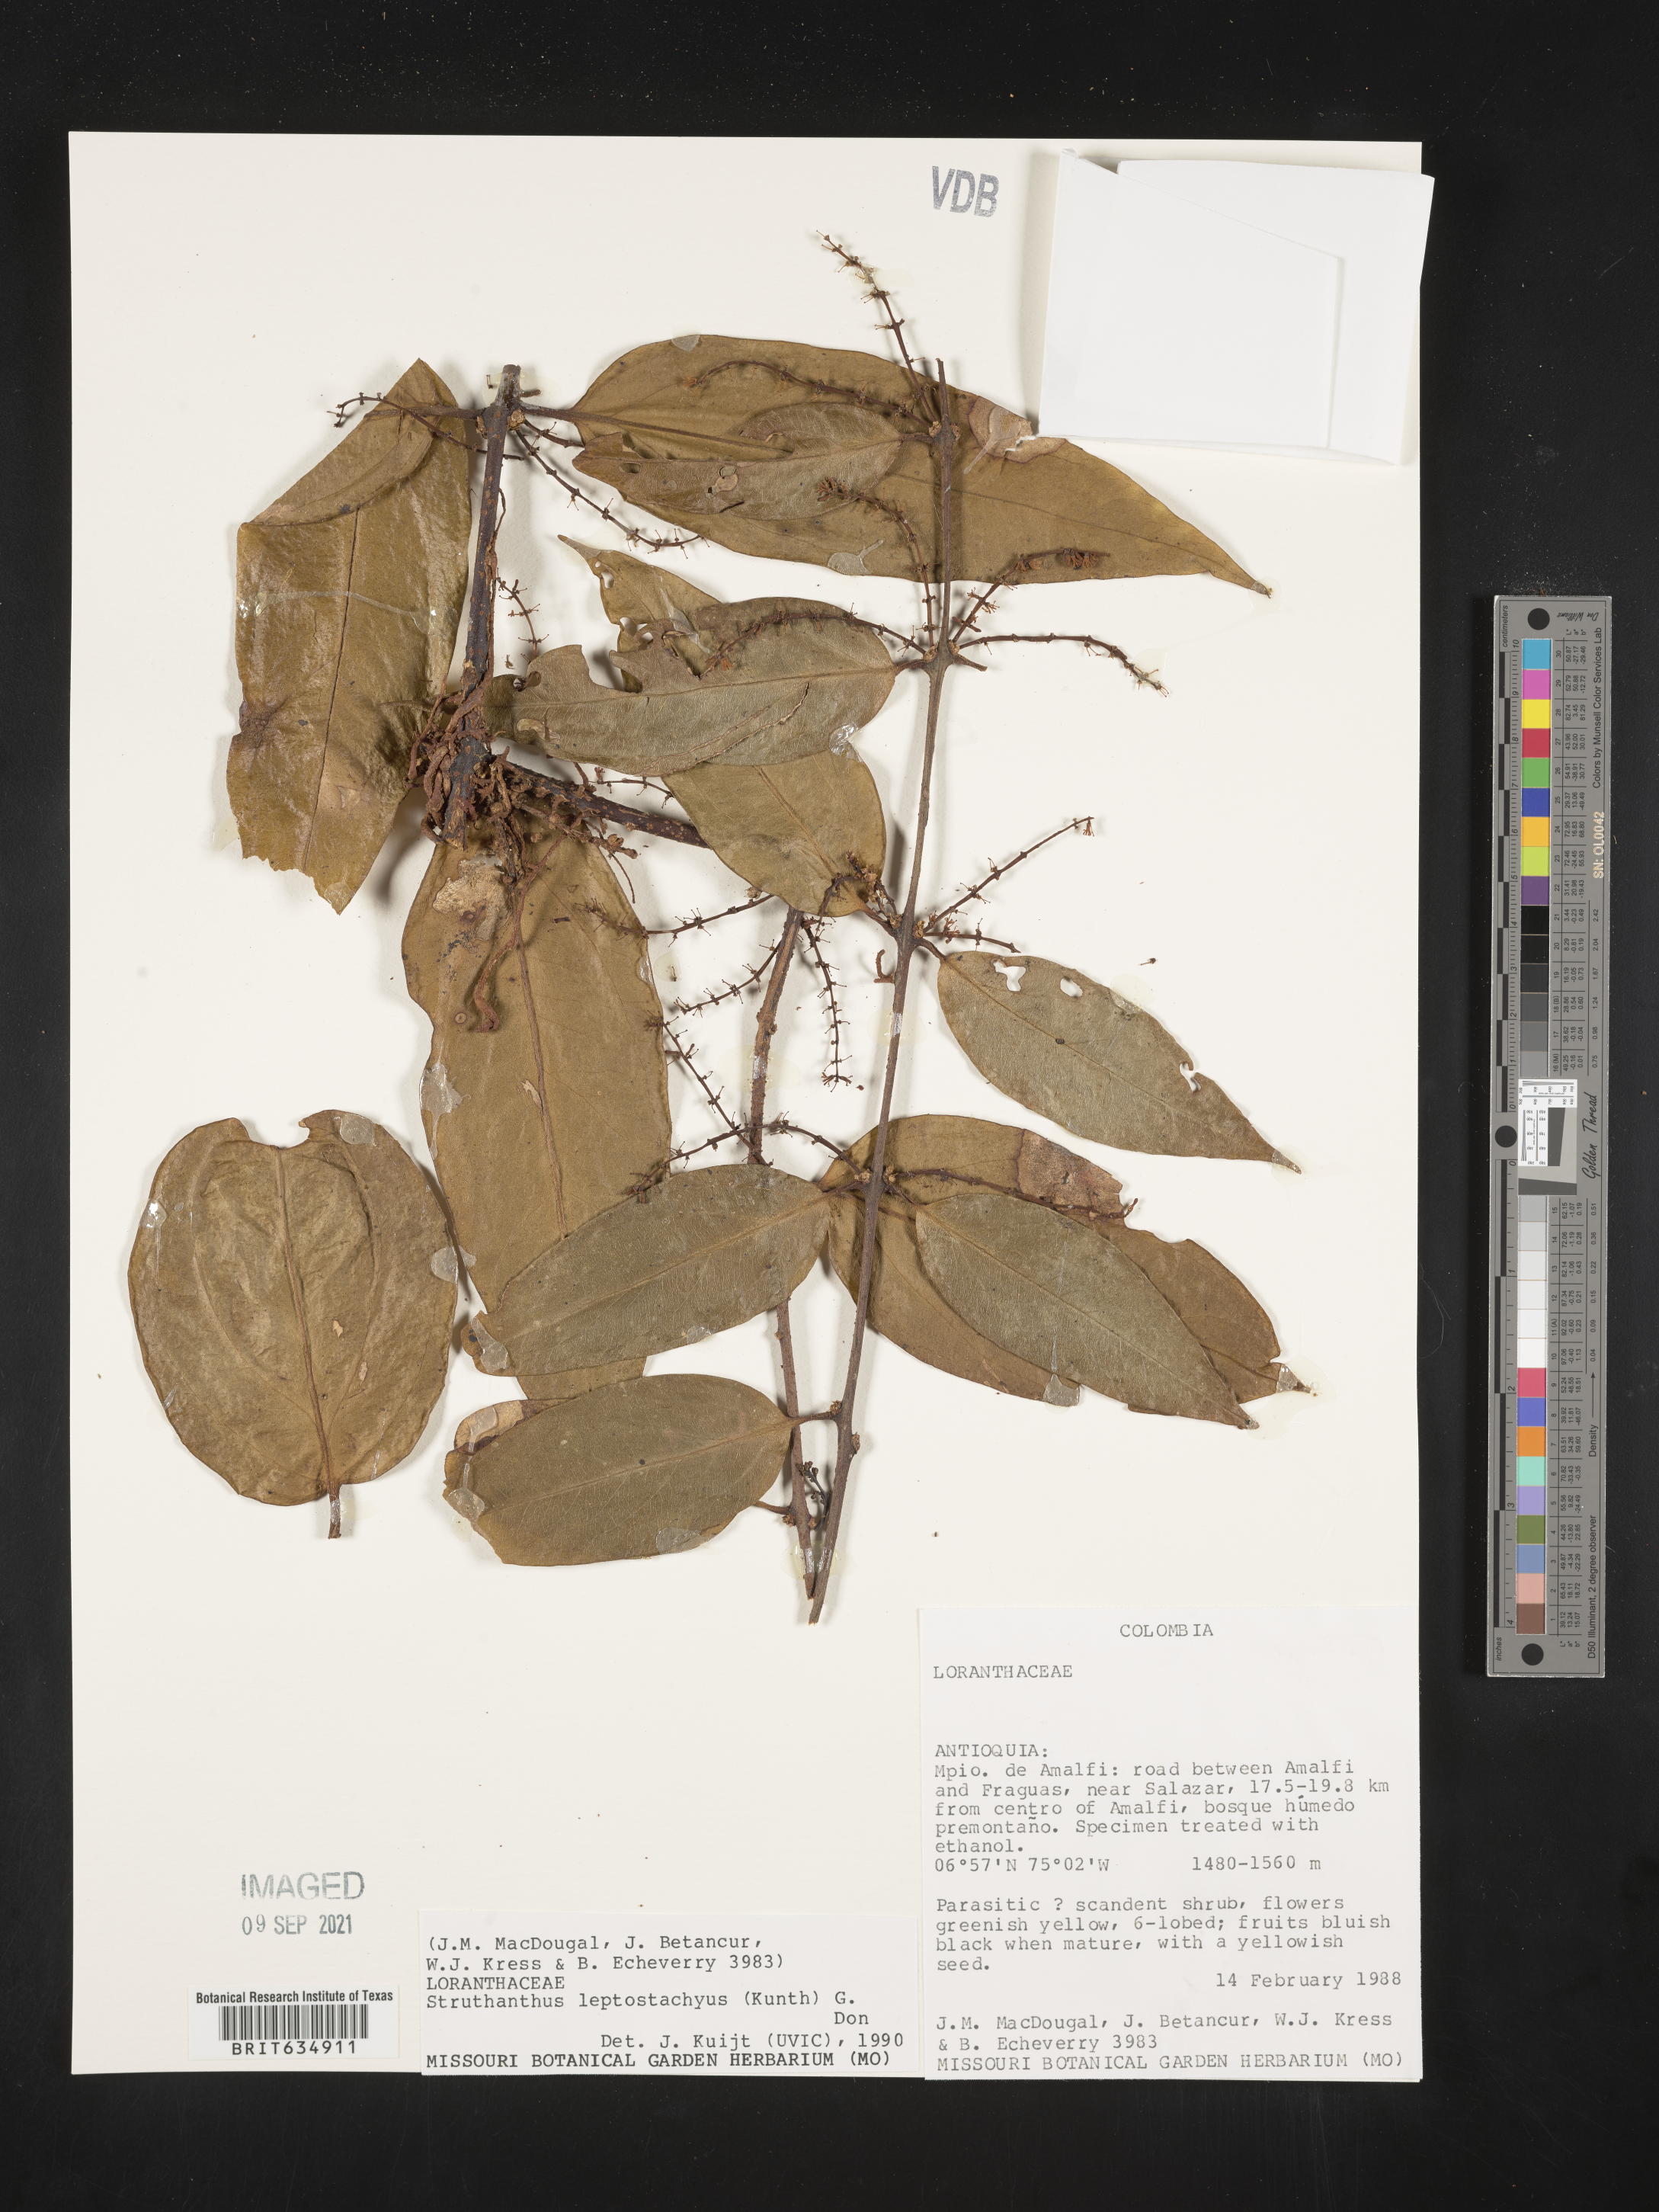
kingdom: Plantae
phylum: Tracheophyta
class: Magnoliopsida
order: Santalales
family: Loranthaceae
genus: Struthanthus
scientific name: Struthanthus
